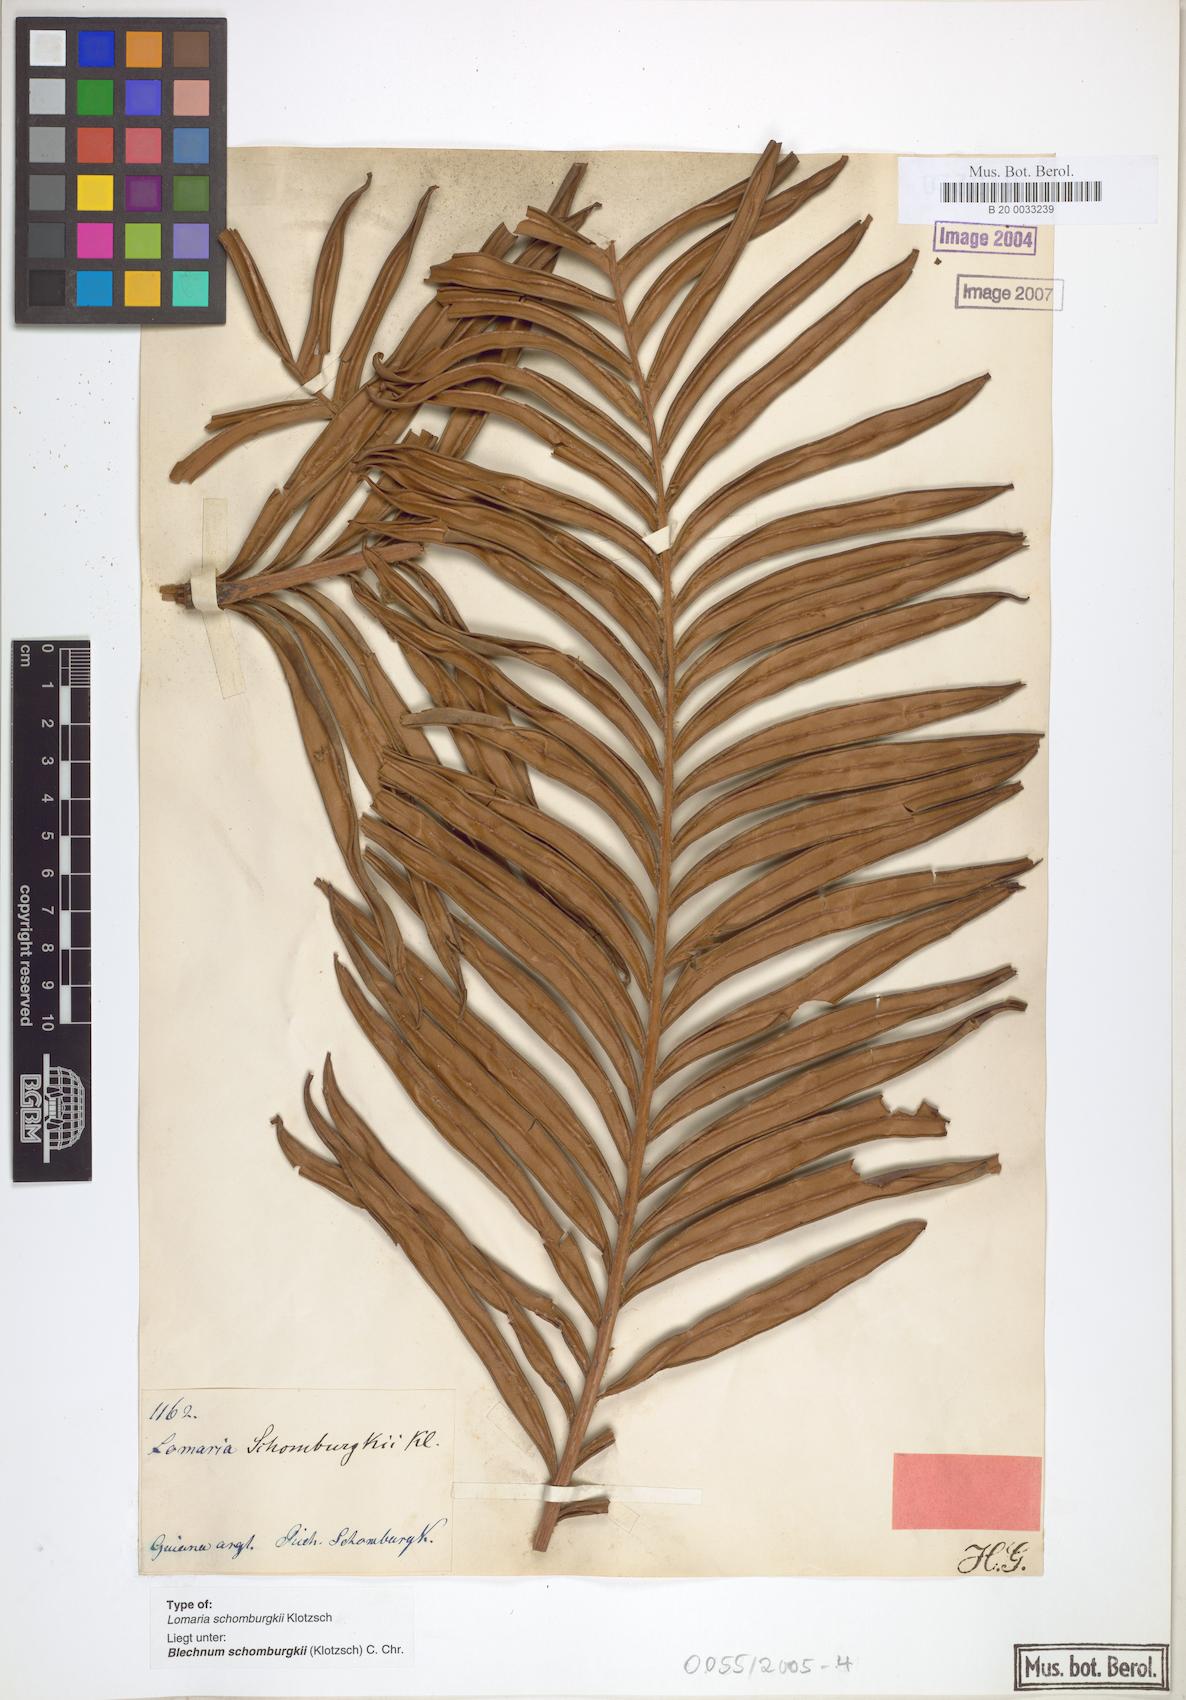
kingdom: Plantae
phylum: Tracheophyta
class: Polypodiopsida
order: Polypodiales
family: Blechnaceae
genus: Lomariocycas
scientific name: Lomariocycas schomburgkii
